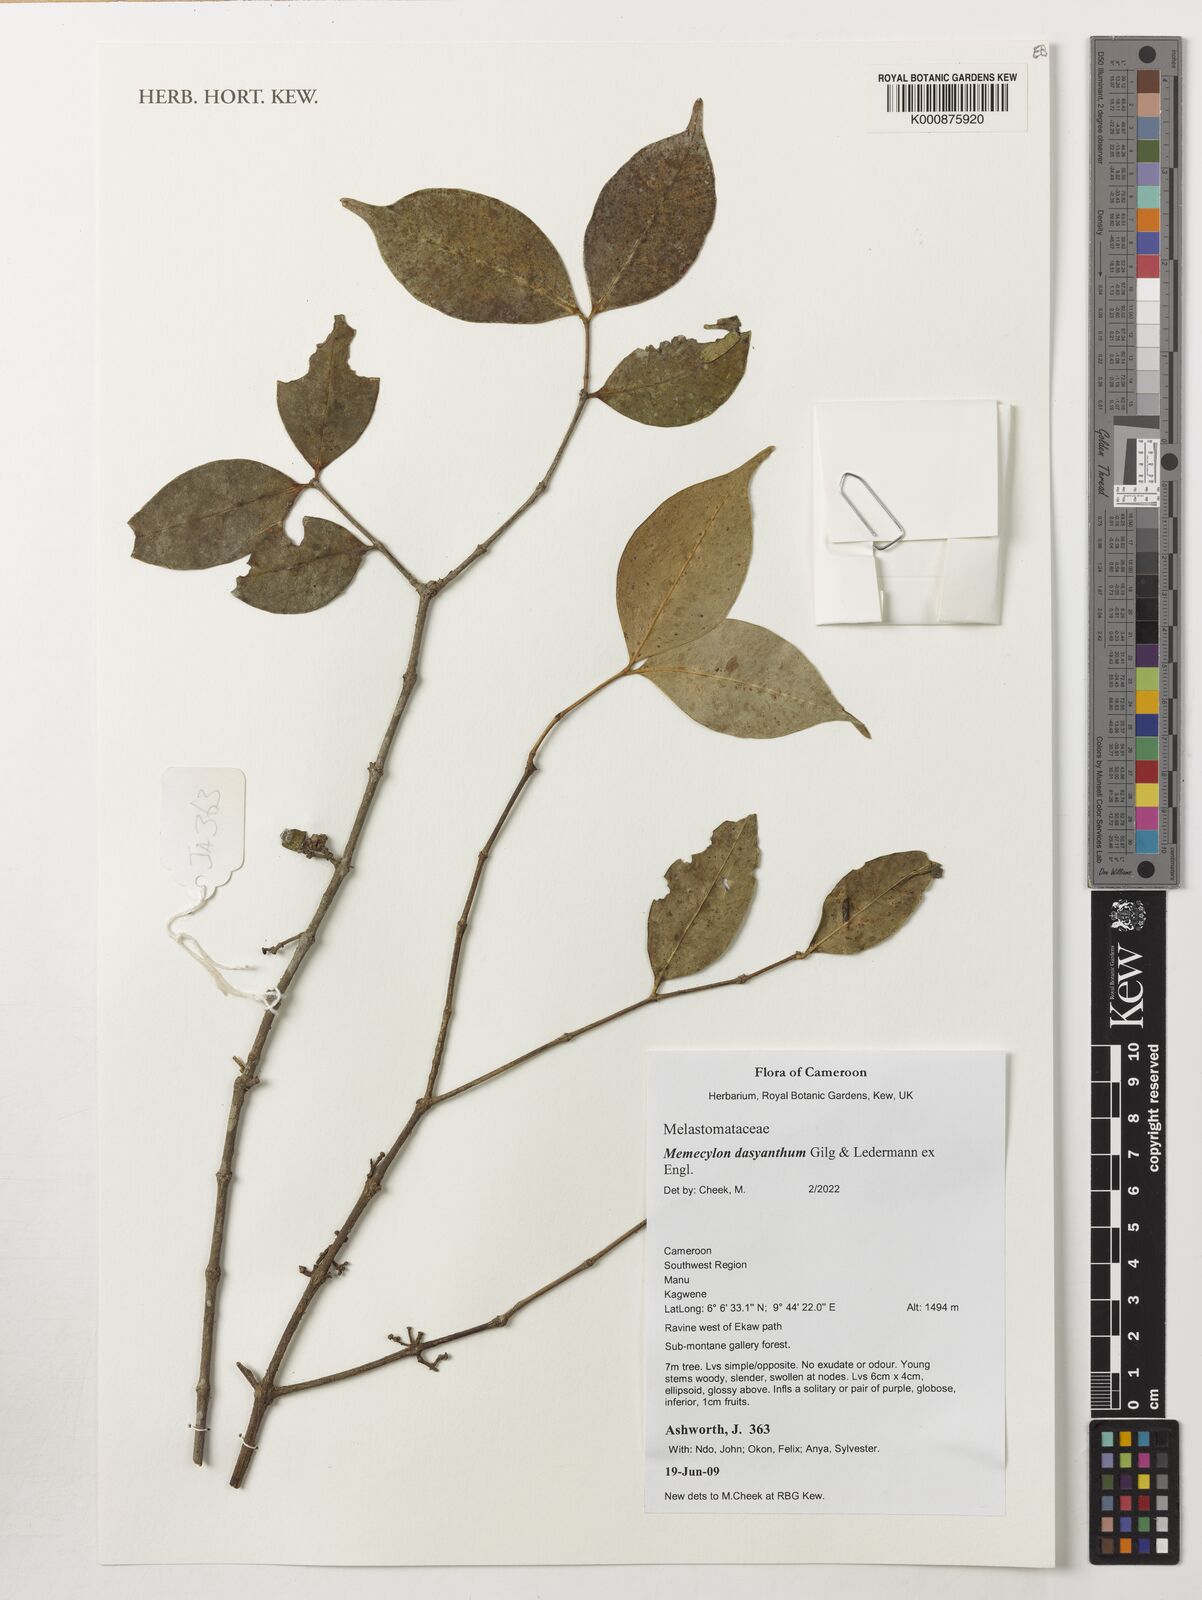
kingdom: Plantae
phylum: Tracheophyta
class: Magnoliopsida
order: Myrtales
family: Melastomataceae
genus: Memecylon
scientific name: Memecylon dasyanthum
